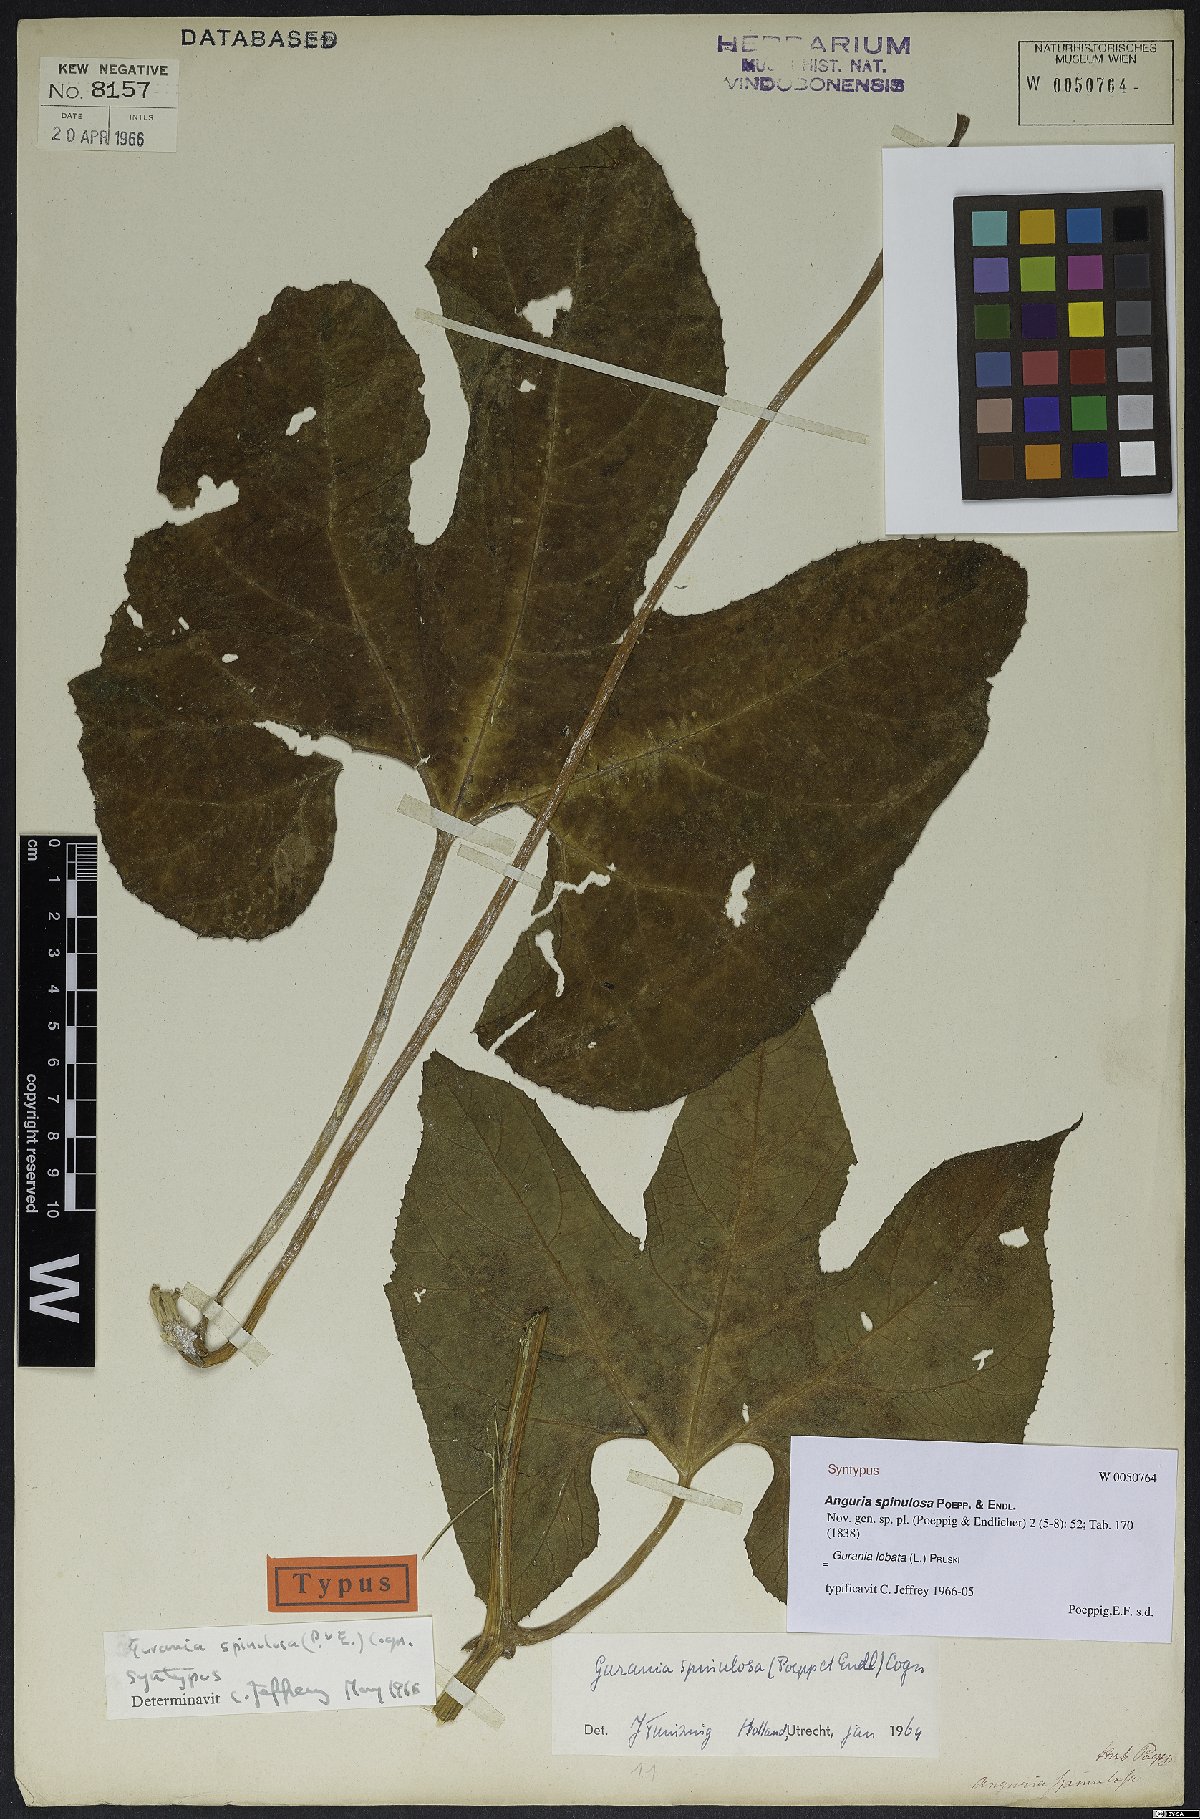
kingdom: Plantae
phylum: Tracheophyta
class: Magnoliopsida
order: Cucurbitales
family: Cucurbitaceae
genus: Gurania
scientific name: Gurania lobata
